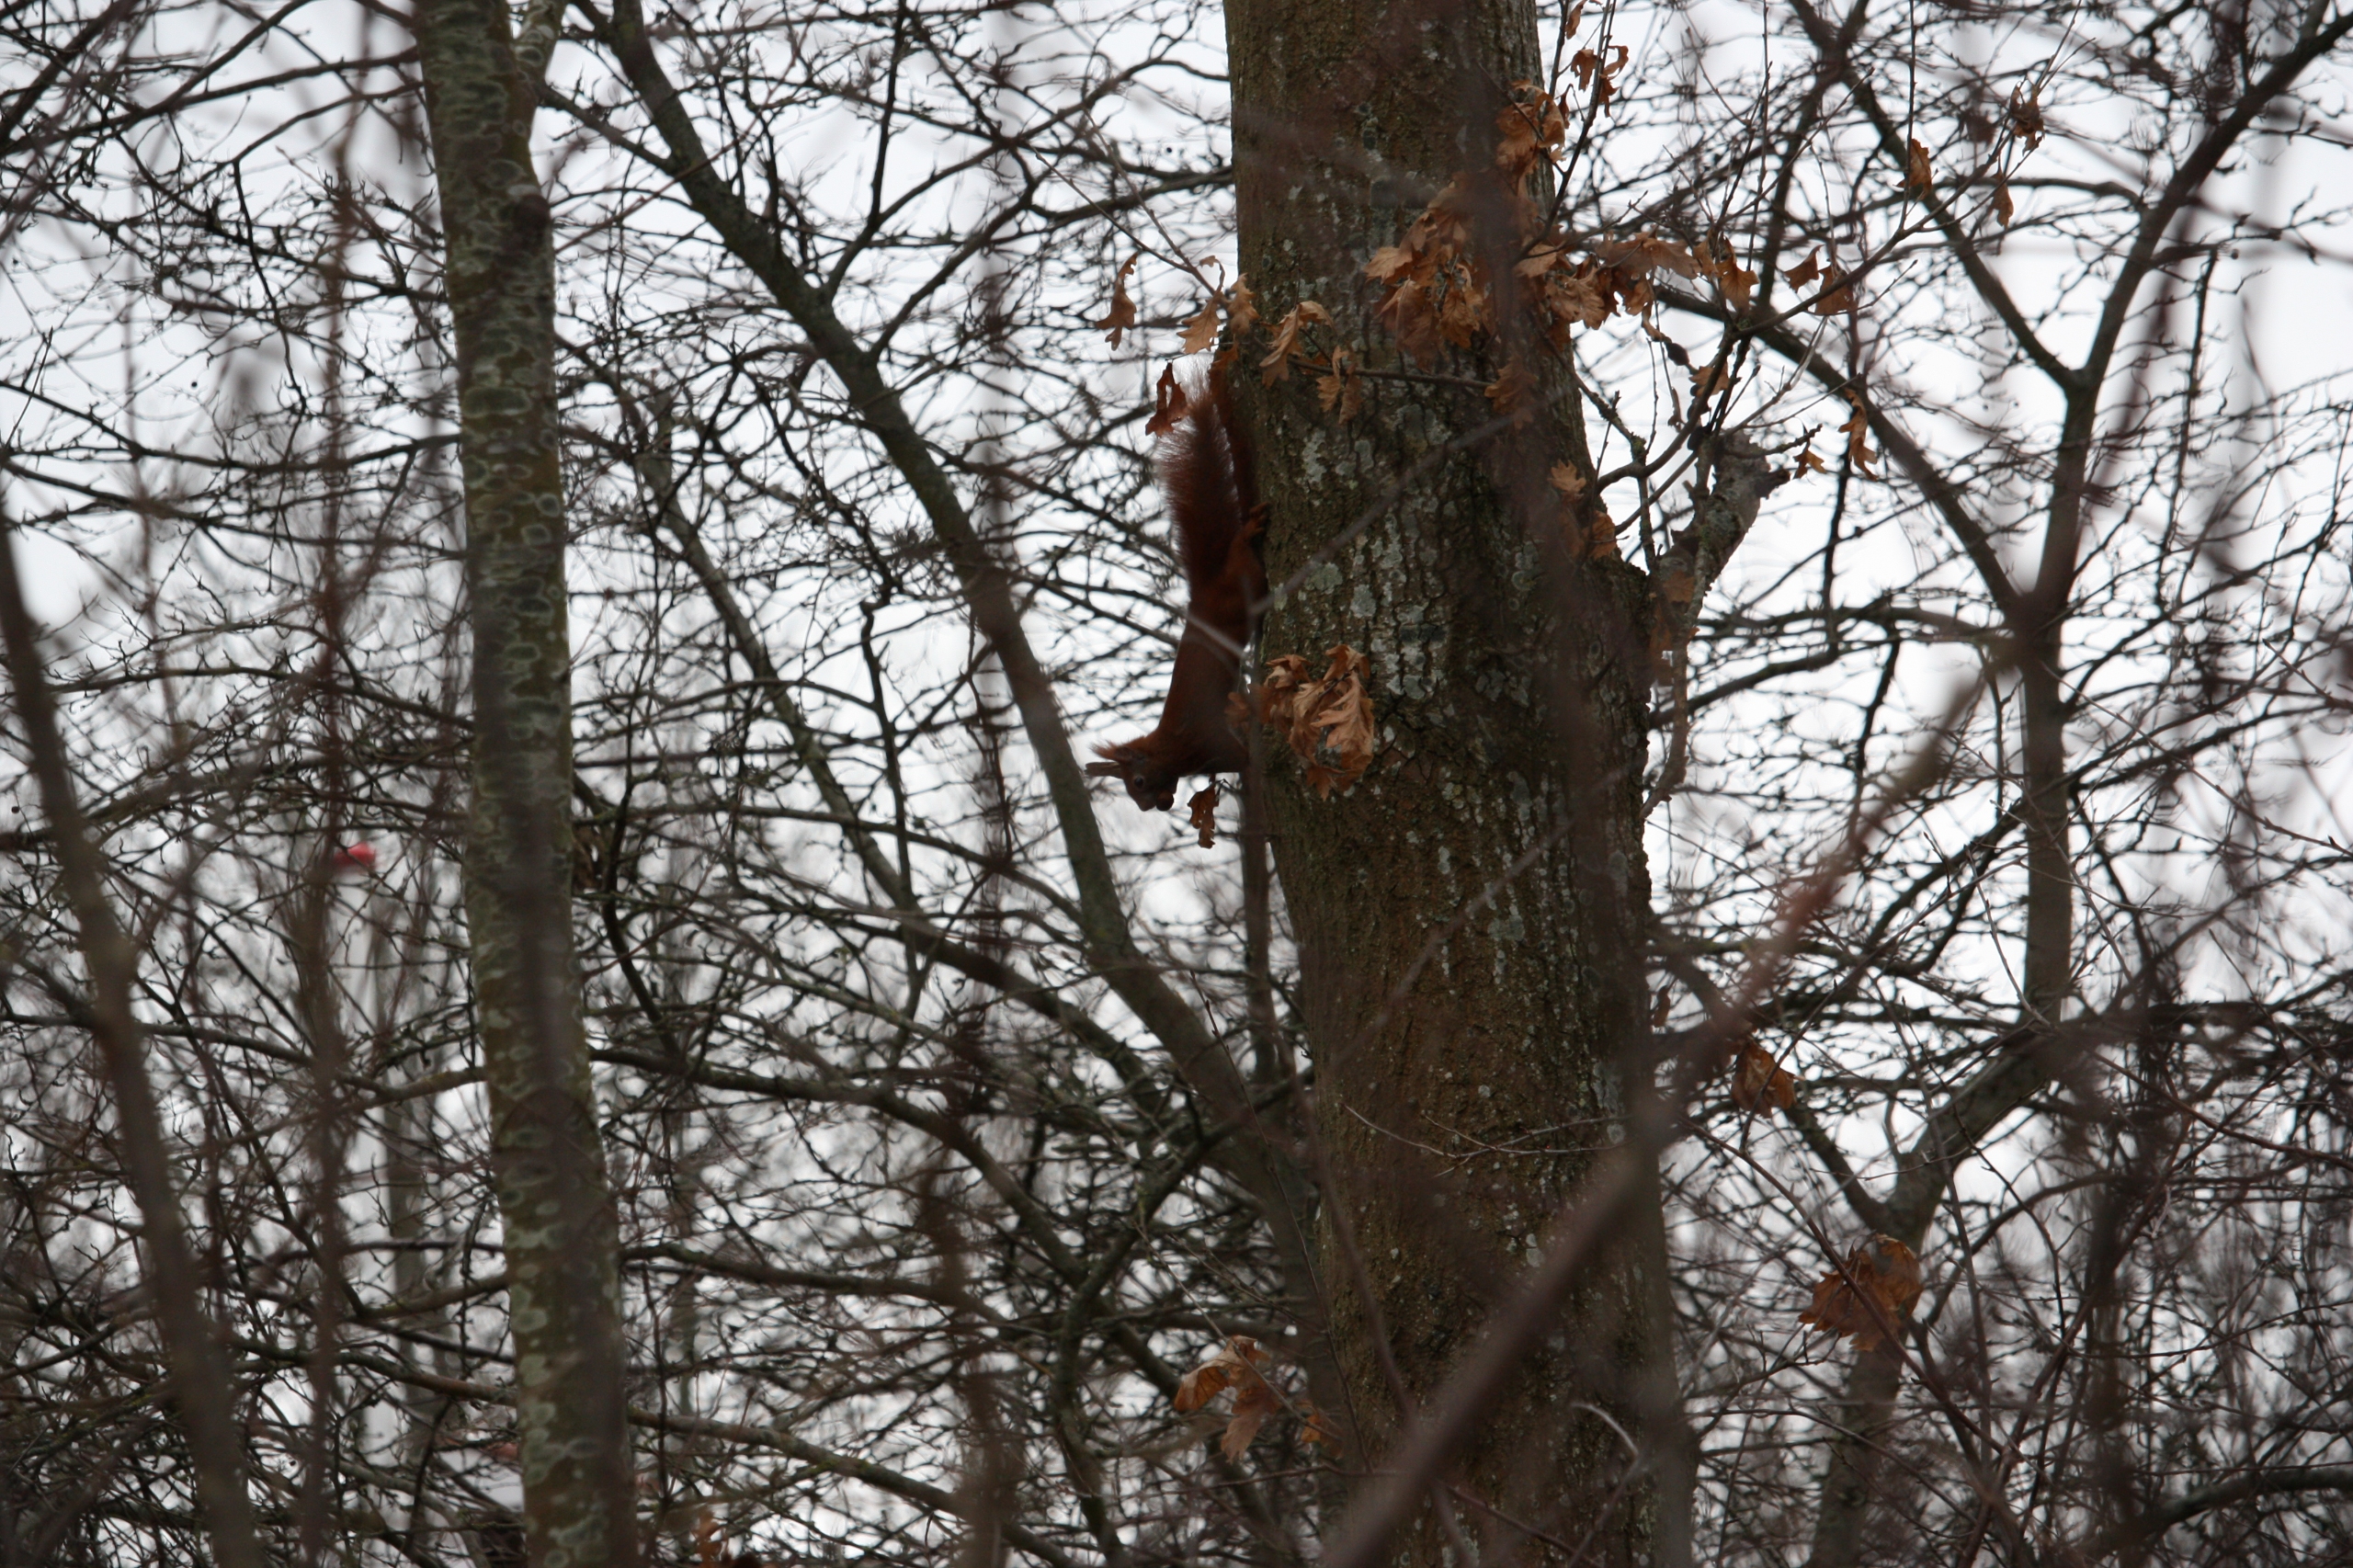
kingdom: Animalia
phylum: Chordata
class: Mammalia
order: Rodentia
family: Sciuridae
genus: Sciurus
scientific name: Sciurus vulgaris
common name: Egern
